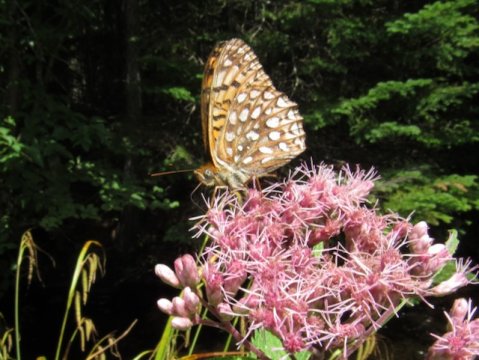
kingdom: Animalia
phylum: Arthropoda
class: Insecta
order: Lepidoptera
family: Nymphalidae
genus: Speyeria
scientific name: Speyeria atlantis
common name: Atlantis Fritillary
